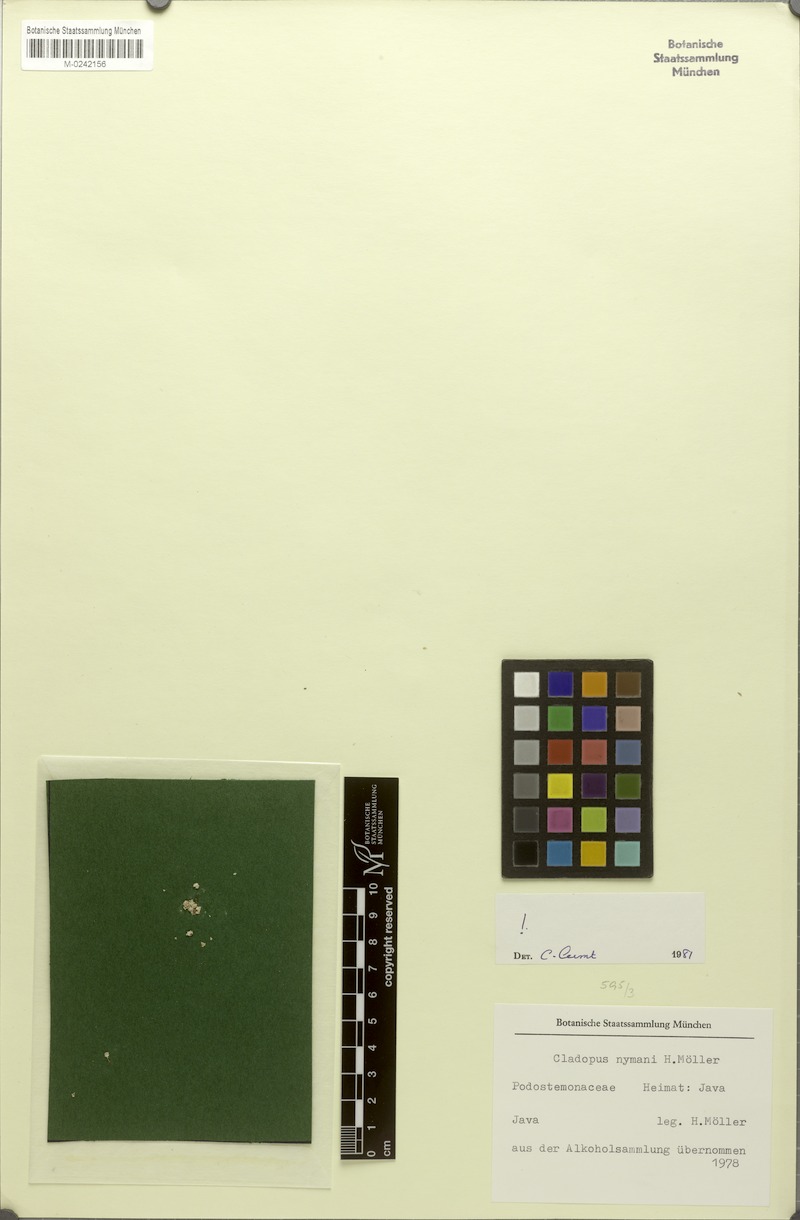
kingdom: Plantae
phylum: Tracheophyta
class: Magnoliopsida
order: Malpighiales
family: Podostemaceae
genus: Cladopus
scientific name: Cladopus nymanii
